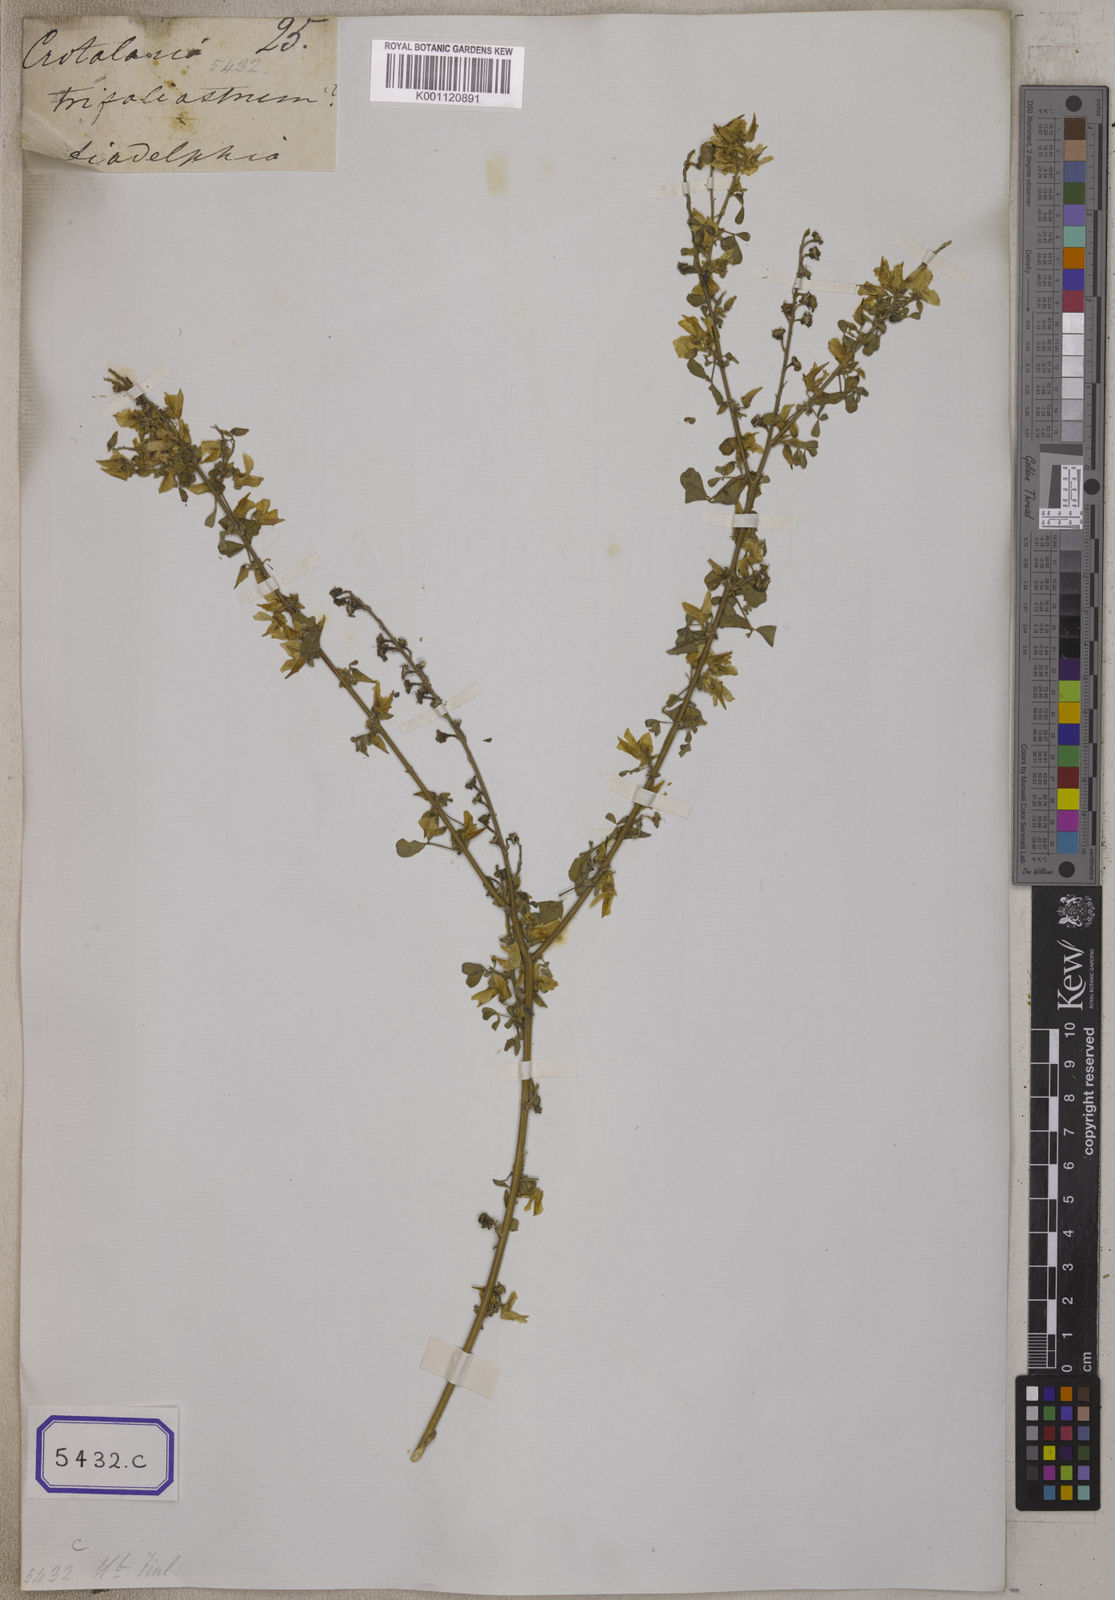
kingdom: Plantae
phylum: Tracheophyta
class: Magnoliopsida
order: Fabales
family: Fabaceae
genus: Crotalaria
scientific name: Crotalaria
